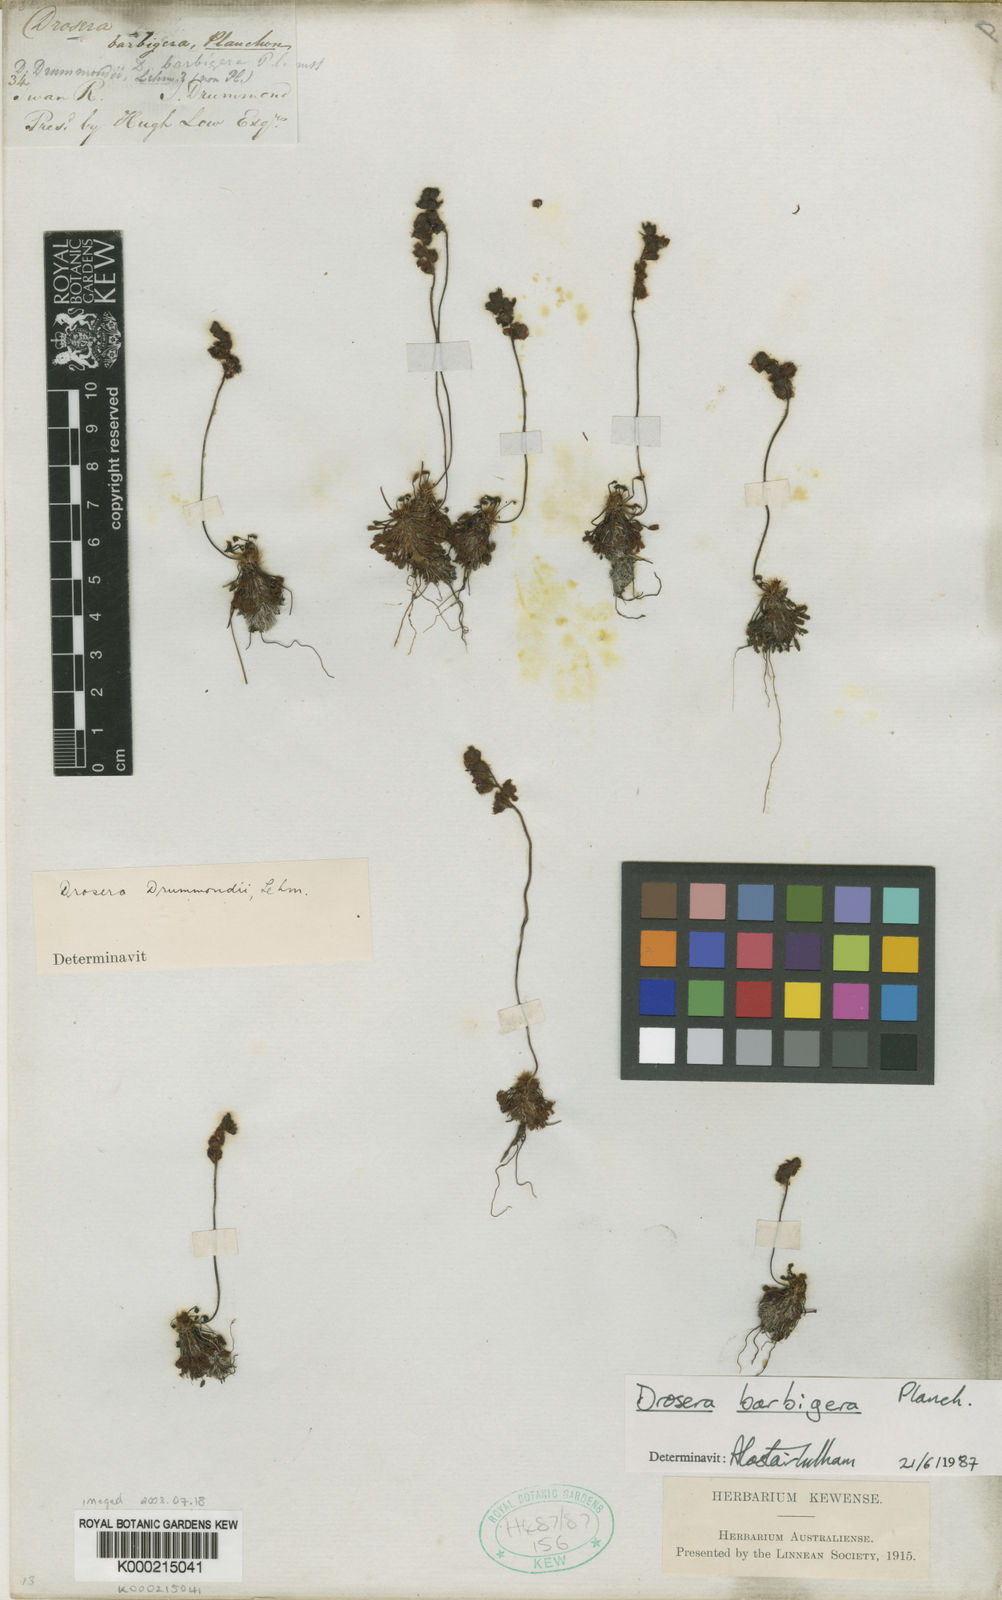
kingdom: Plantae
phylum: Tracheophyta
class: Magnoliopsida
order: Caryophyllales
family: Droseraceae
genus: Drosera
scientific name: Drosera barbigera
